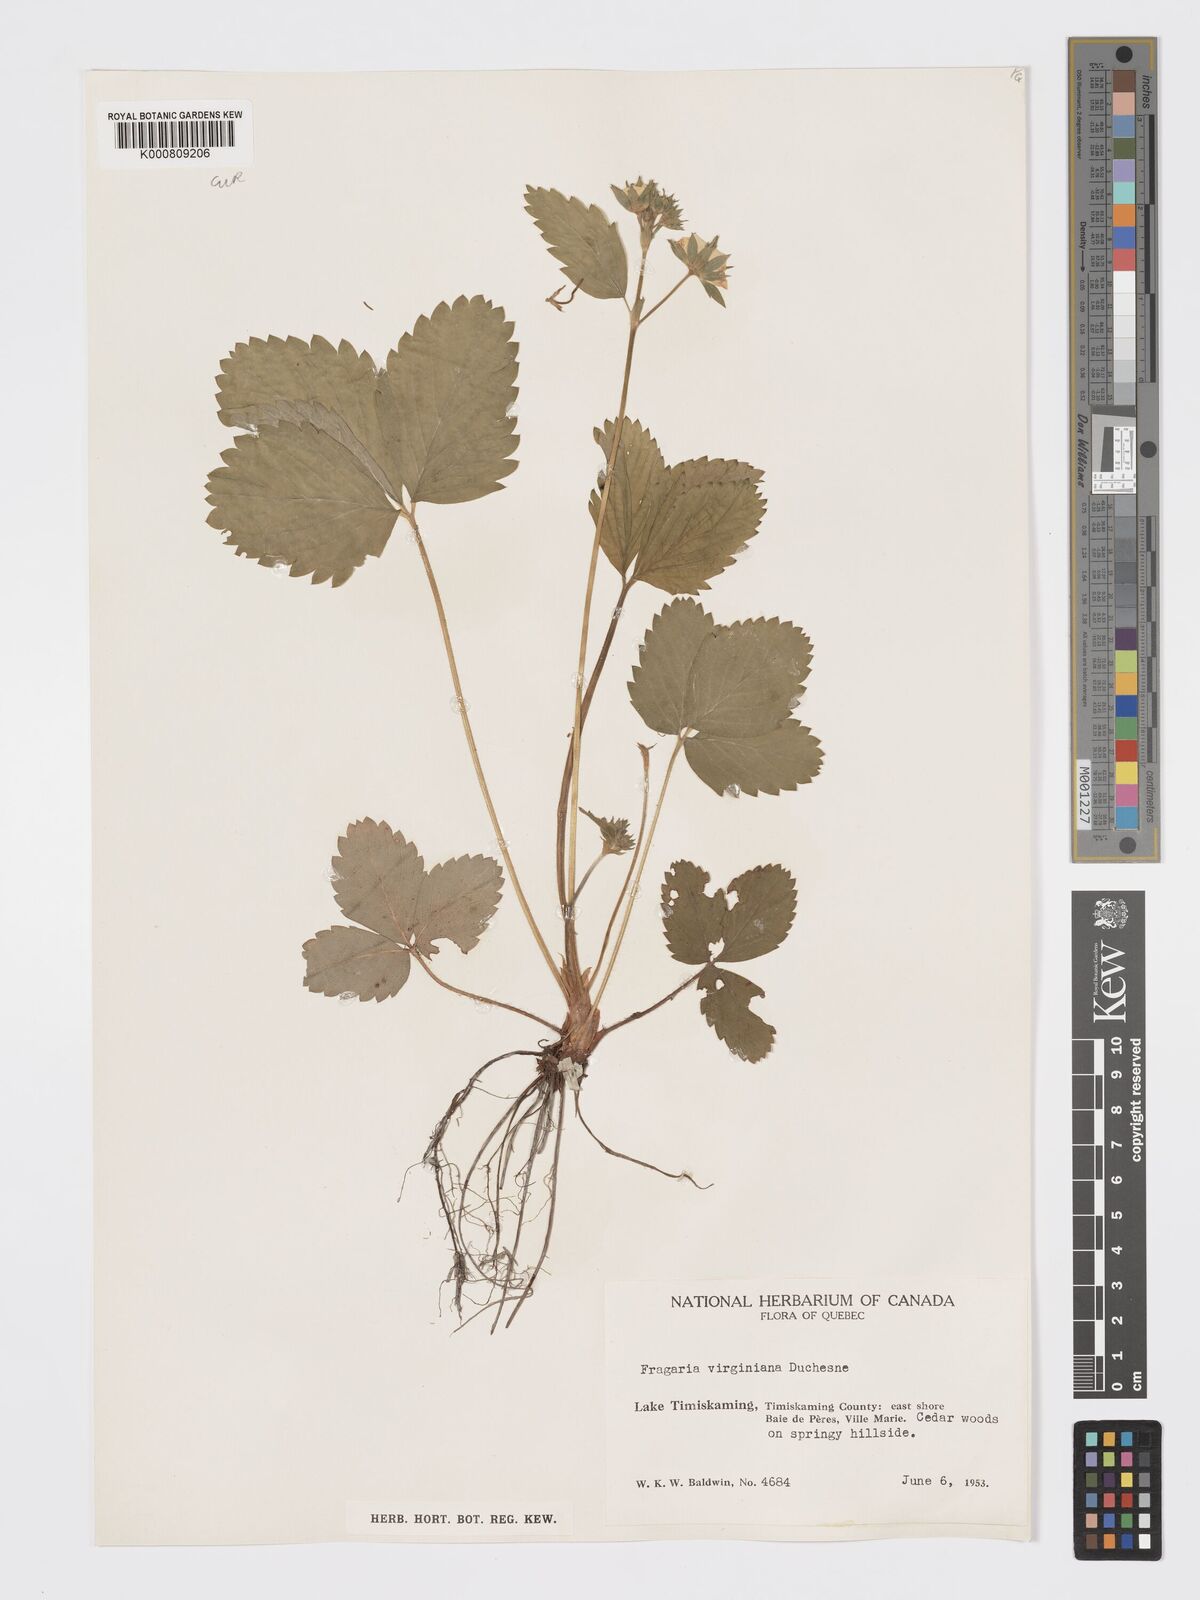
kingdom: Plantae
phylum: Tracheophyta
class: Magnoliopsida
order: Rosales
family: Rosaceae
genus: Fragaria
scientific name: Fragaria virginiana
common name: Thickleaved wild strawberry
